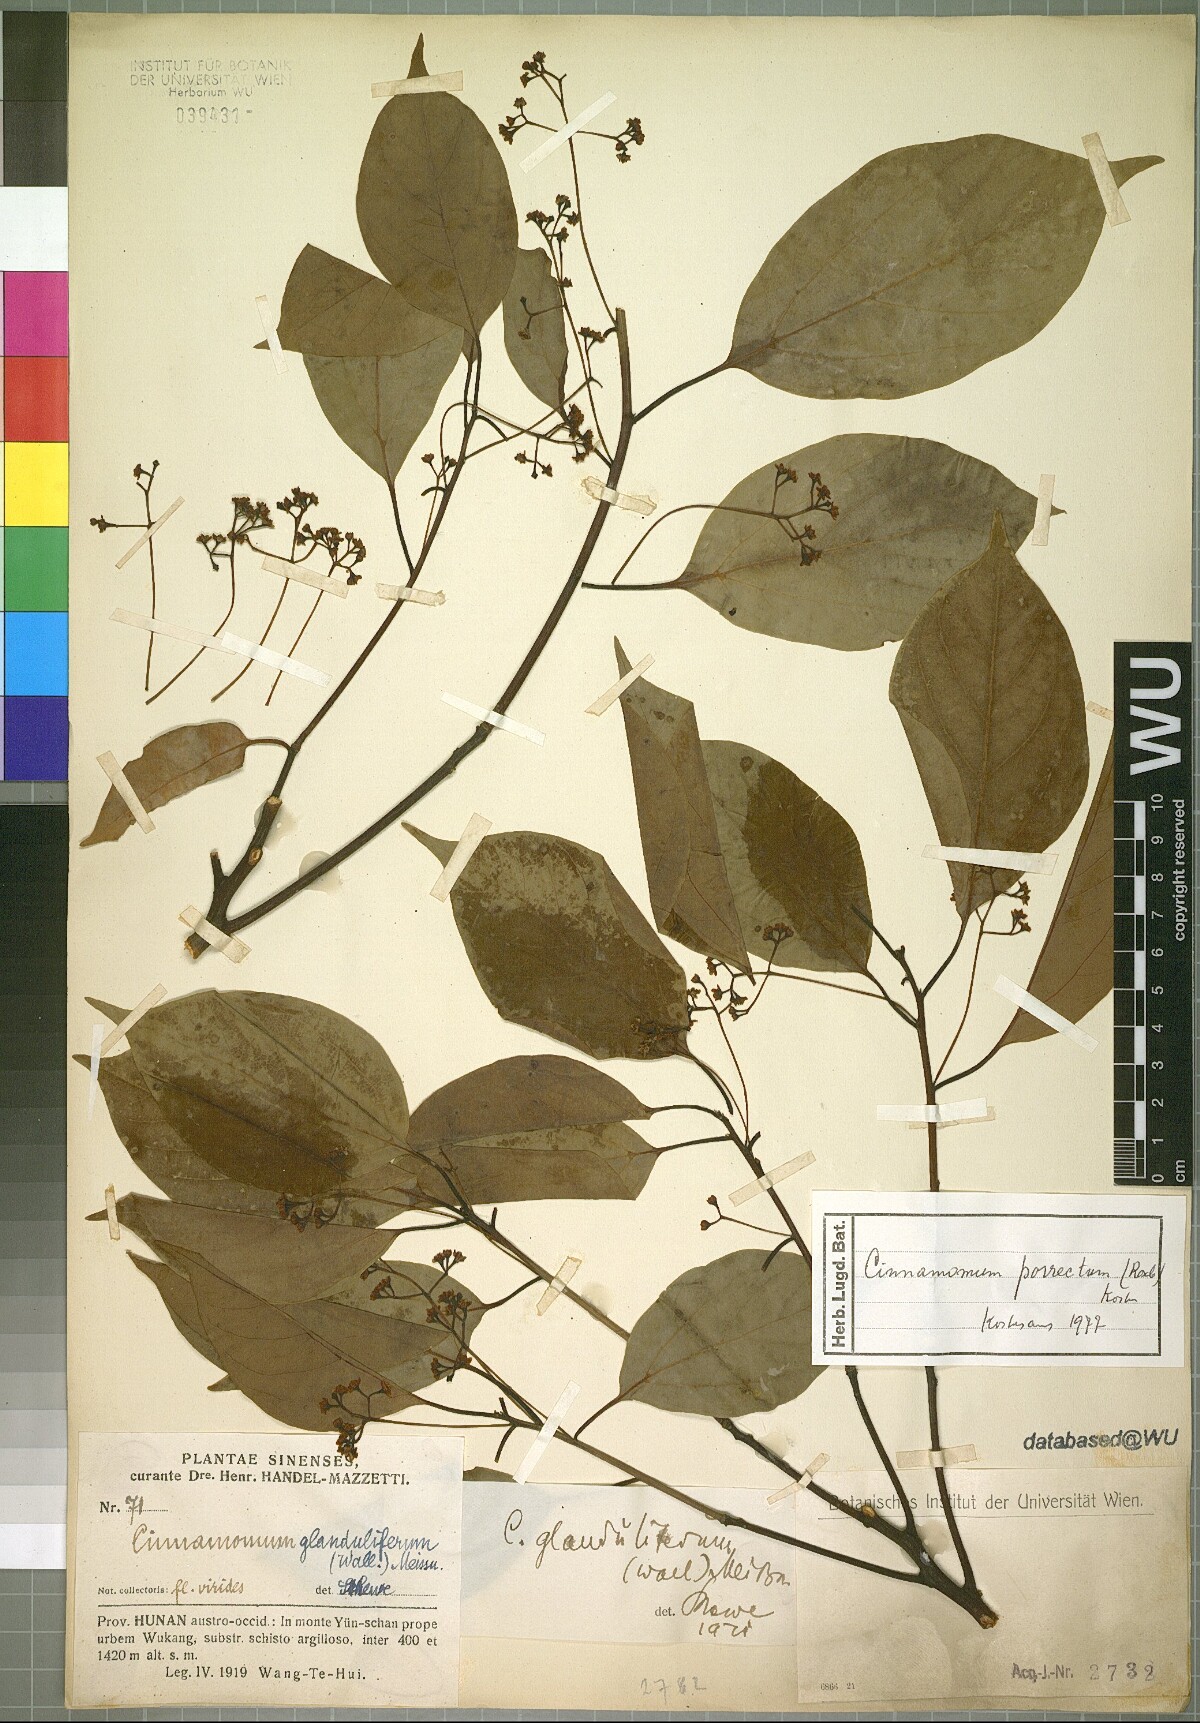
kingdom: Plantae
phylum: Tracheophyta
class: Magnoliopsida
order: Laurales
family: Lauraceae
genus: Cinnamomum
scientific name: Cinnamomum parthenoxylon
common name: Martaban camphor wood
